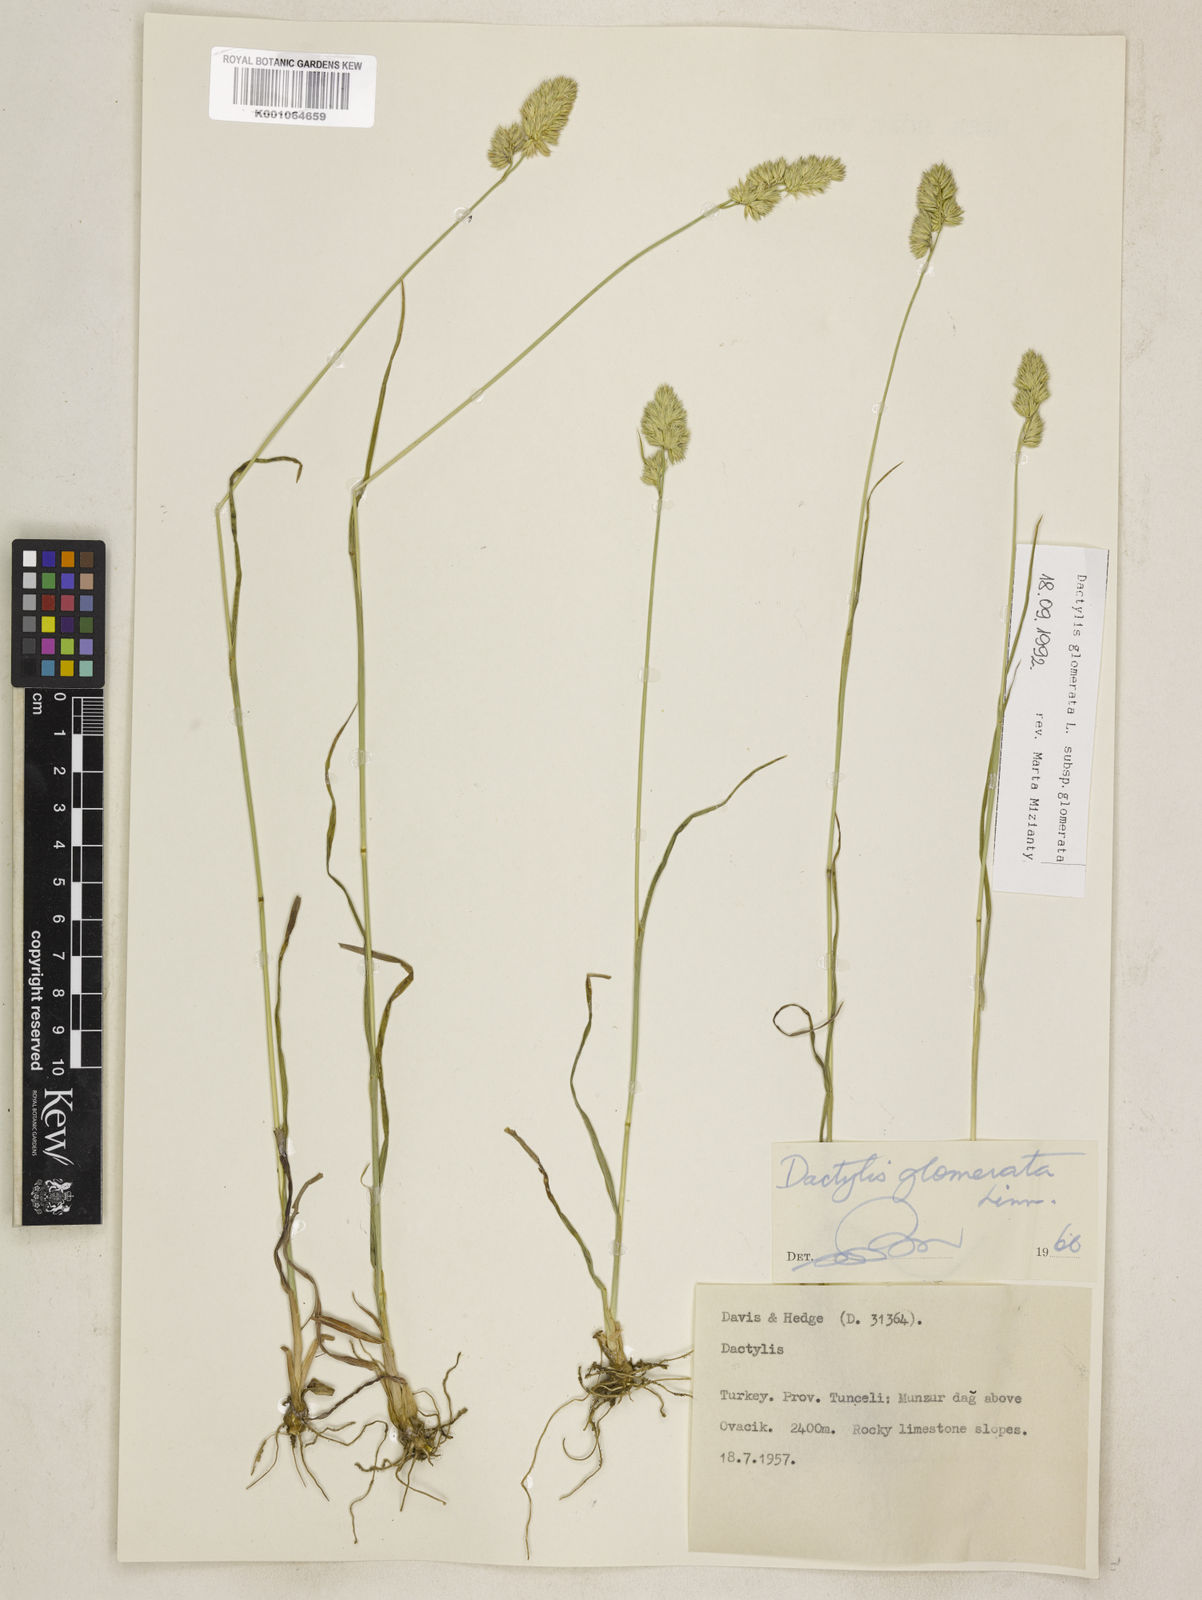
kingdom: Plantae
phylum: Tracheophyta
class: Liliopsida
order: Poales
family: Poaceae
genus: Dactylis
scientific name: Dactylis glomerata
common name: Orchardgrass
